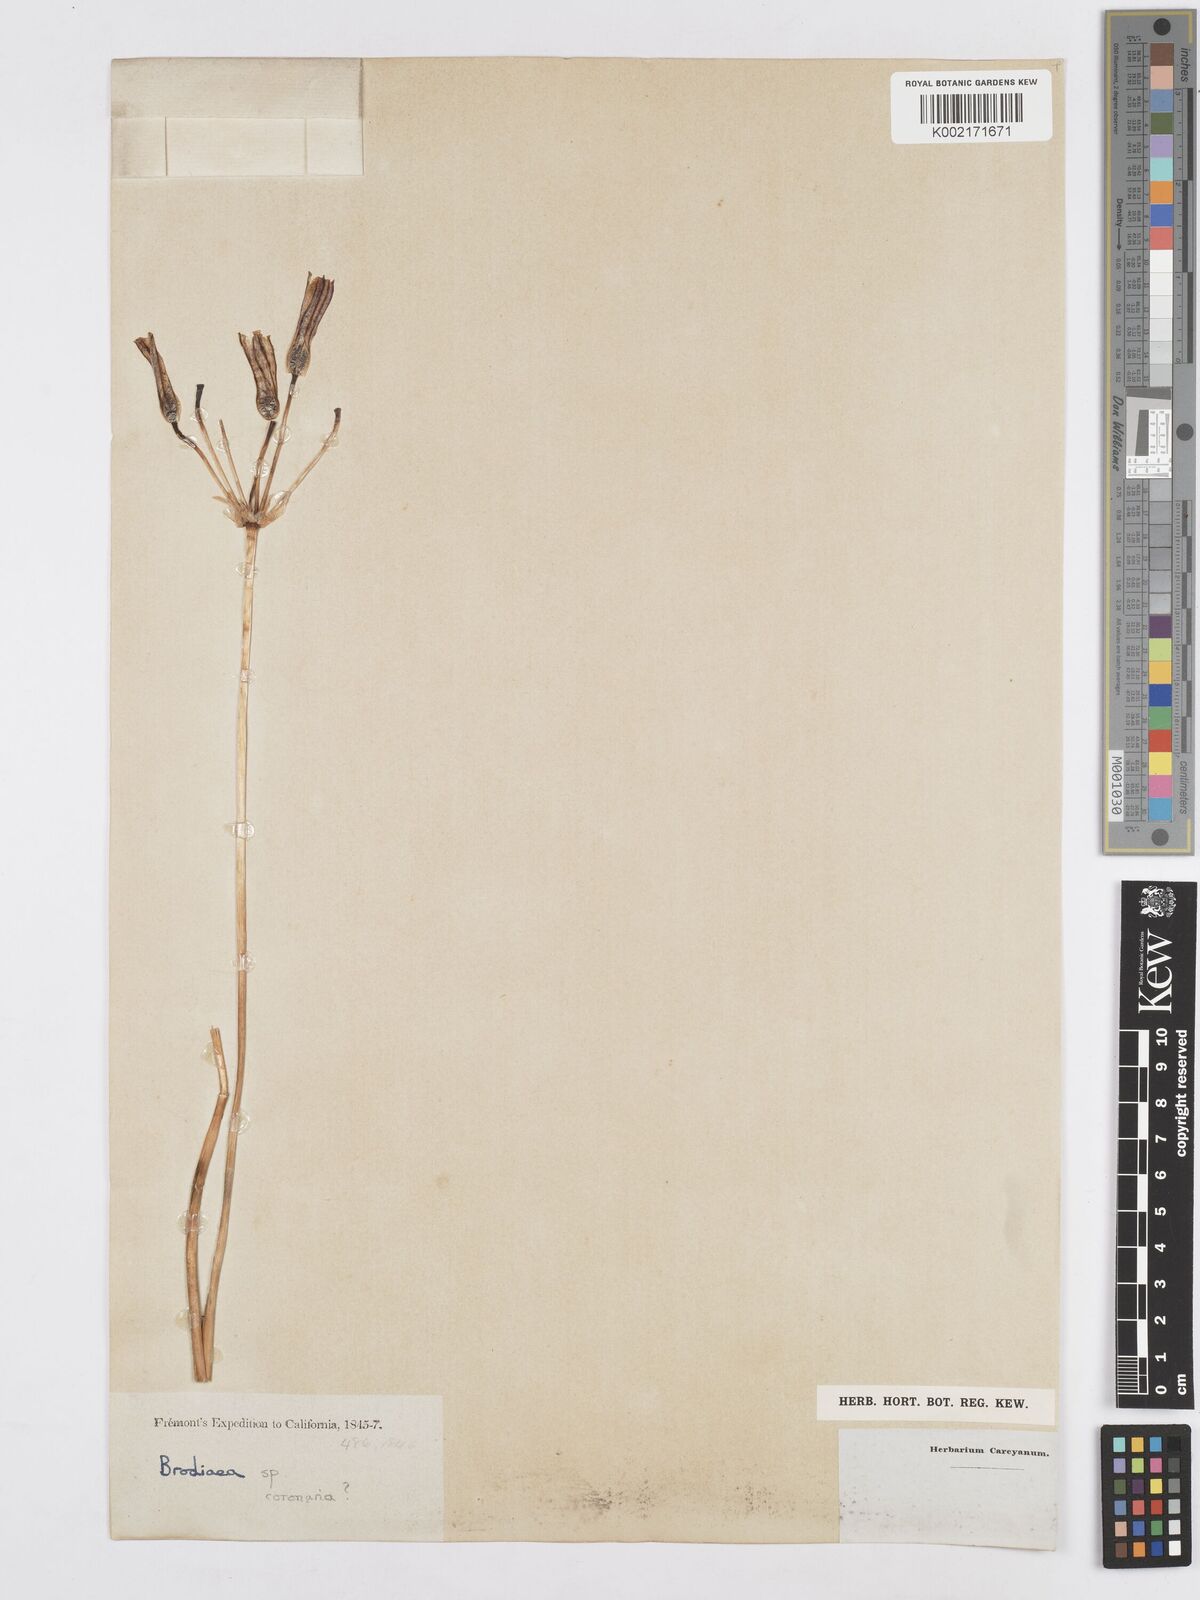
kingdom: Plantae
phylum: Tracheophyta
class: Liliopsida
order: Asparagales
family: Asparagaceae
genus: Triteleia
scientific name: Triteleia grandiflora
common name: Wild hyacinth
